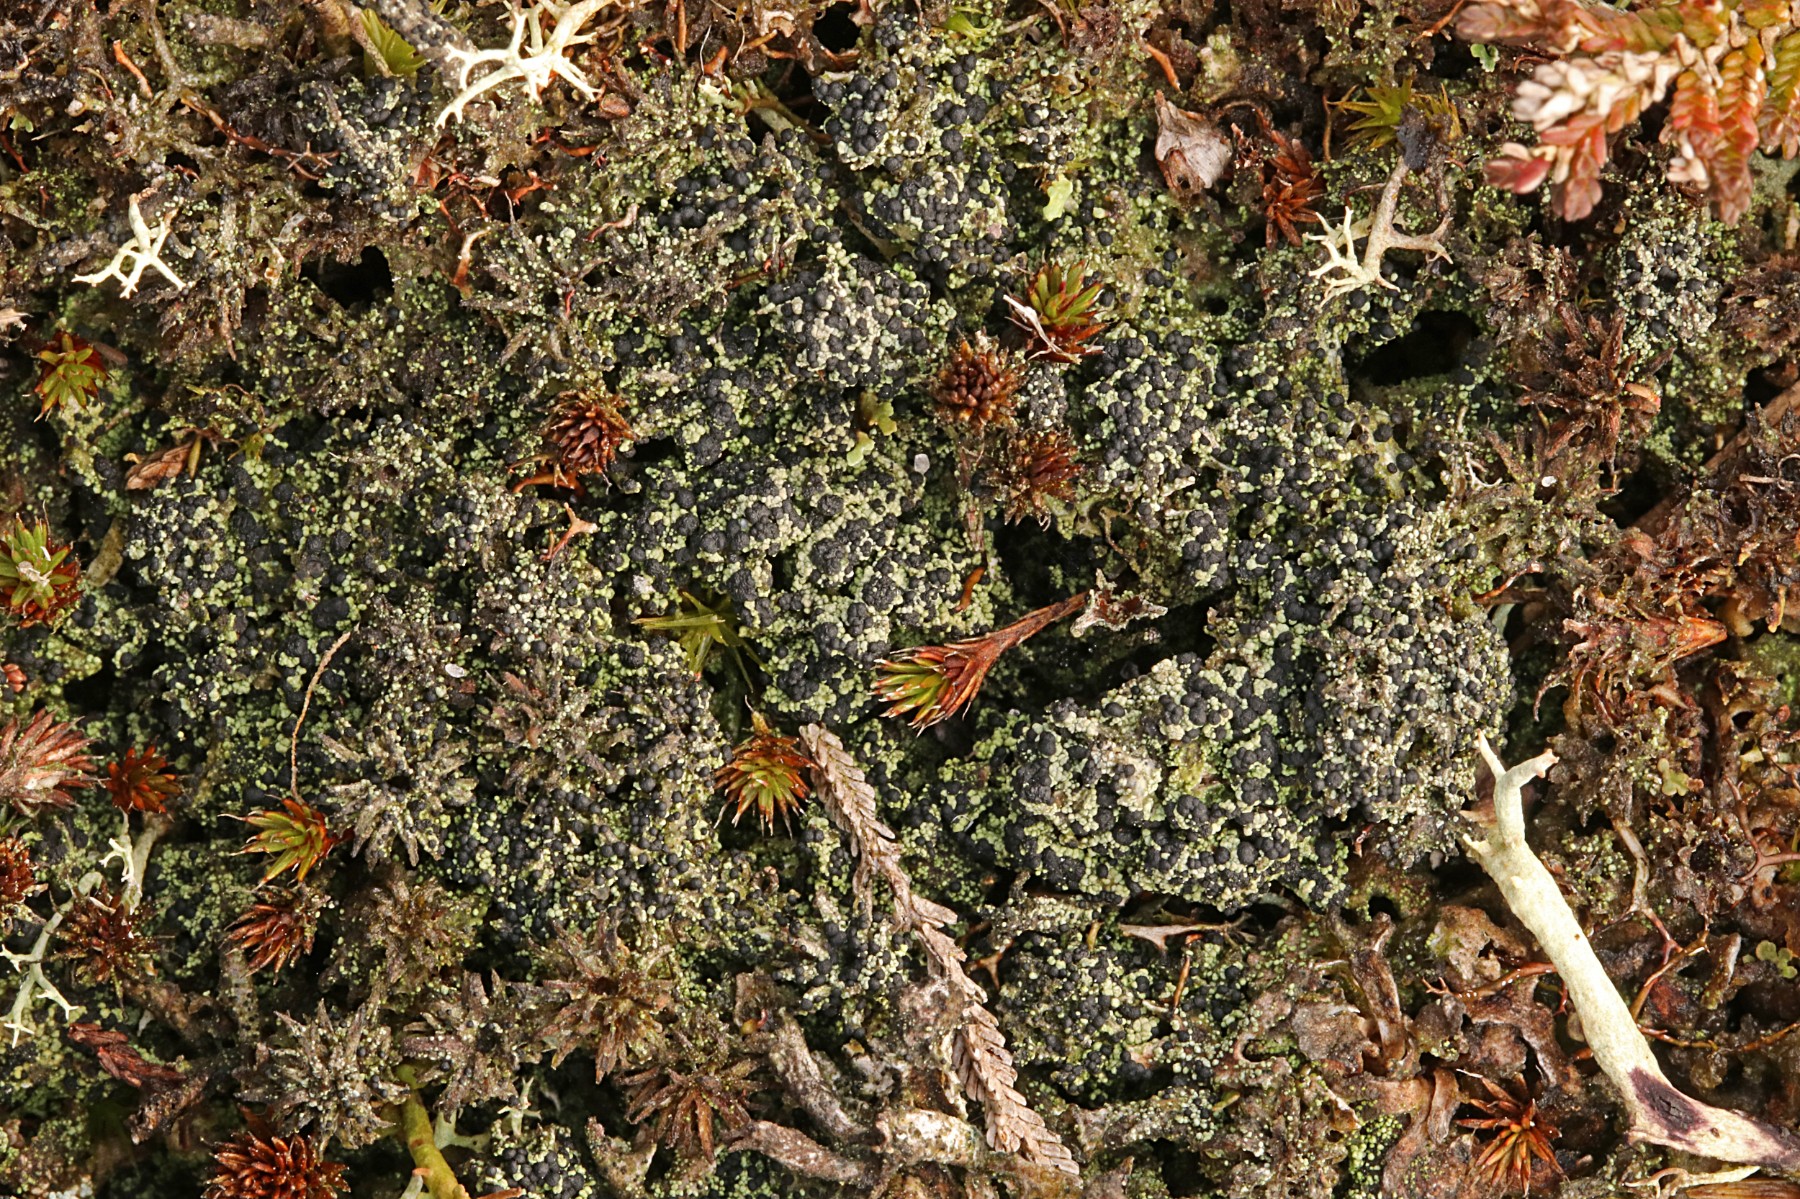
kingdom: Fungi
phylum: Ascomycota
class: Lecanoromycetes
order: Lecanorales
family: Byssolomataceae
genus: Micarea
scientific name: Micarea lignaria
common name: tørve-knaplav
